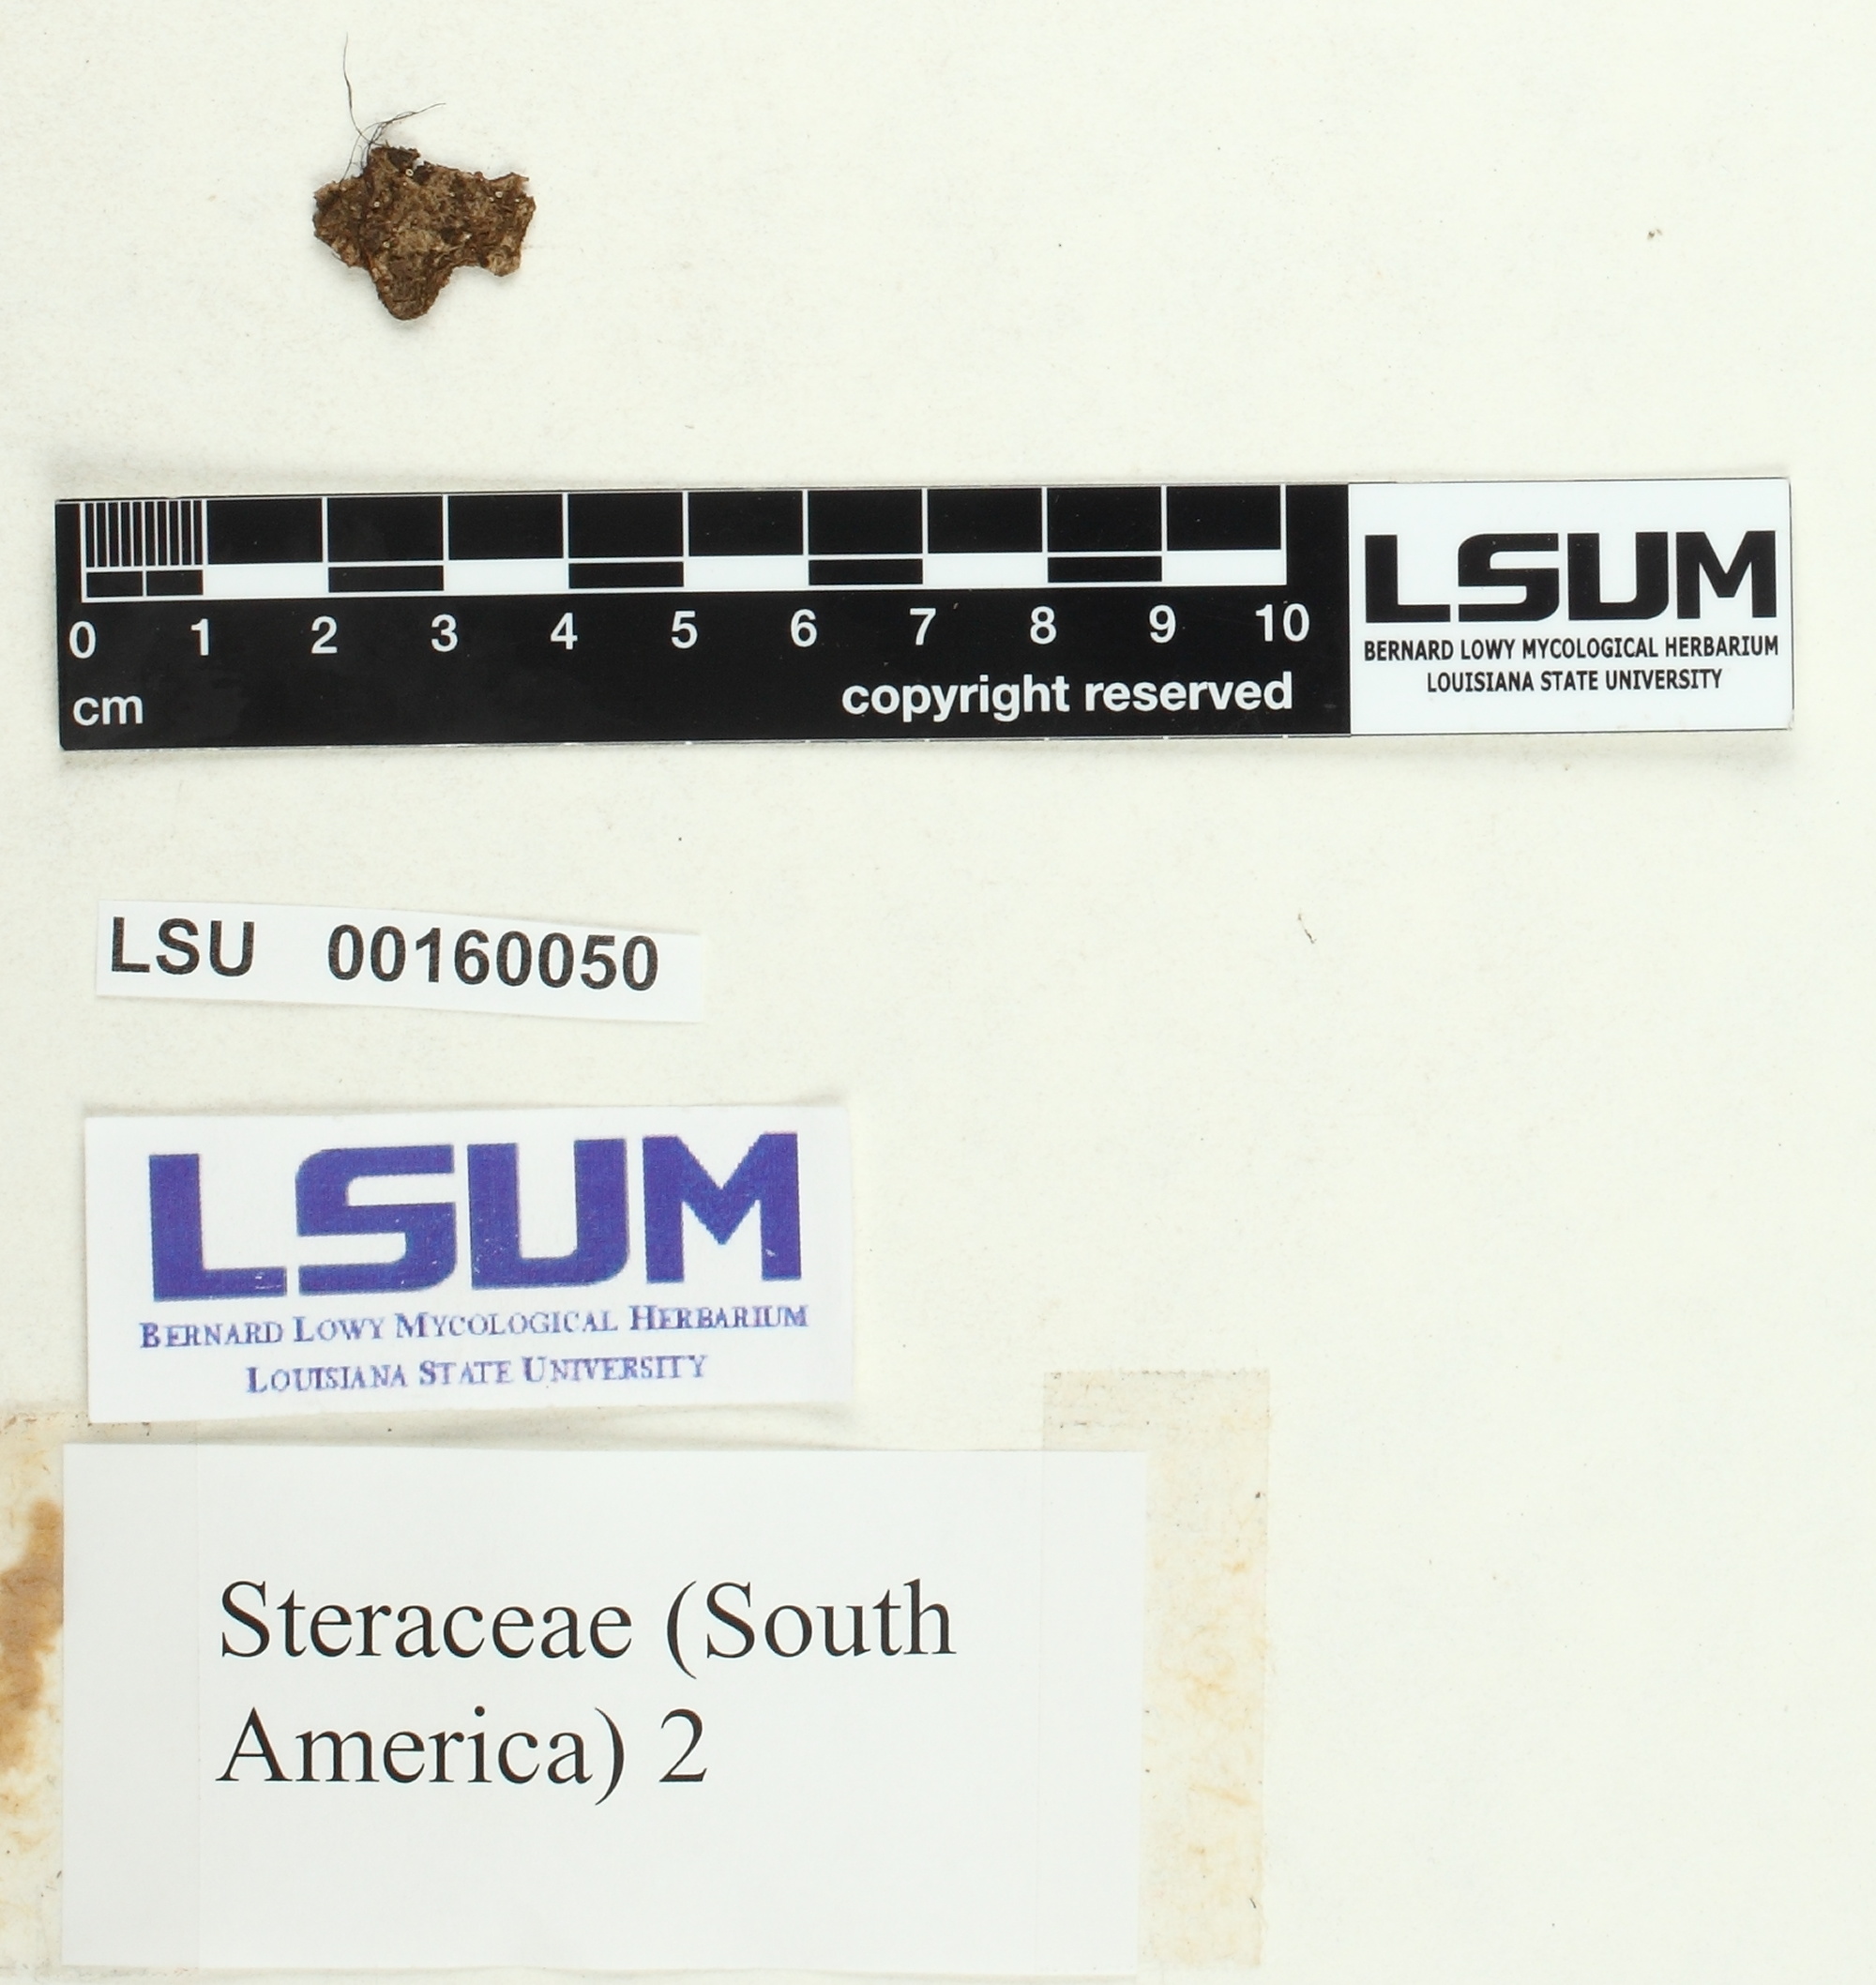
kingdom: Fungi
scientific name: Fungi
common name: Fungi
